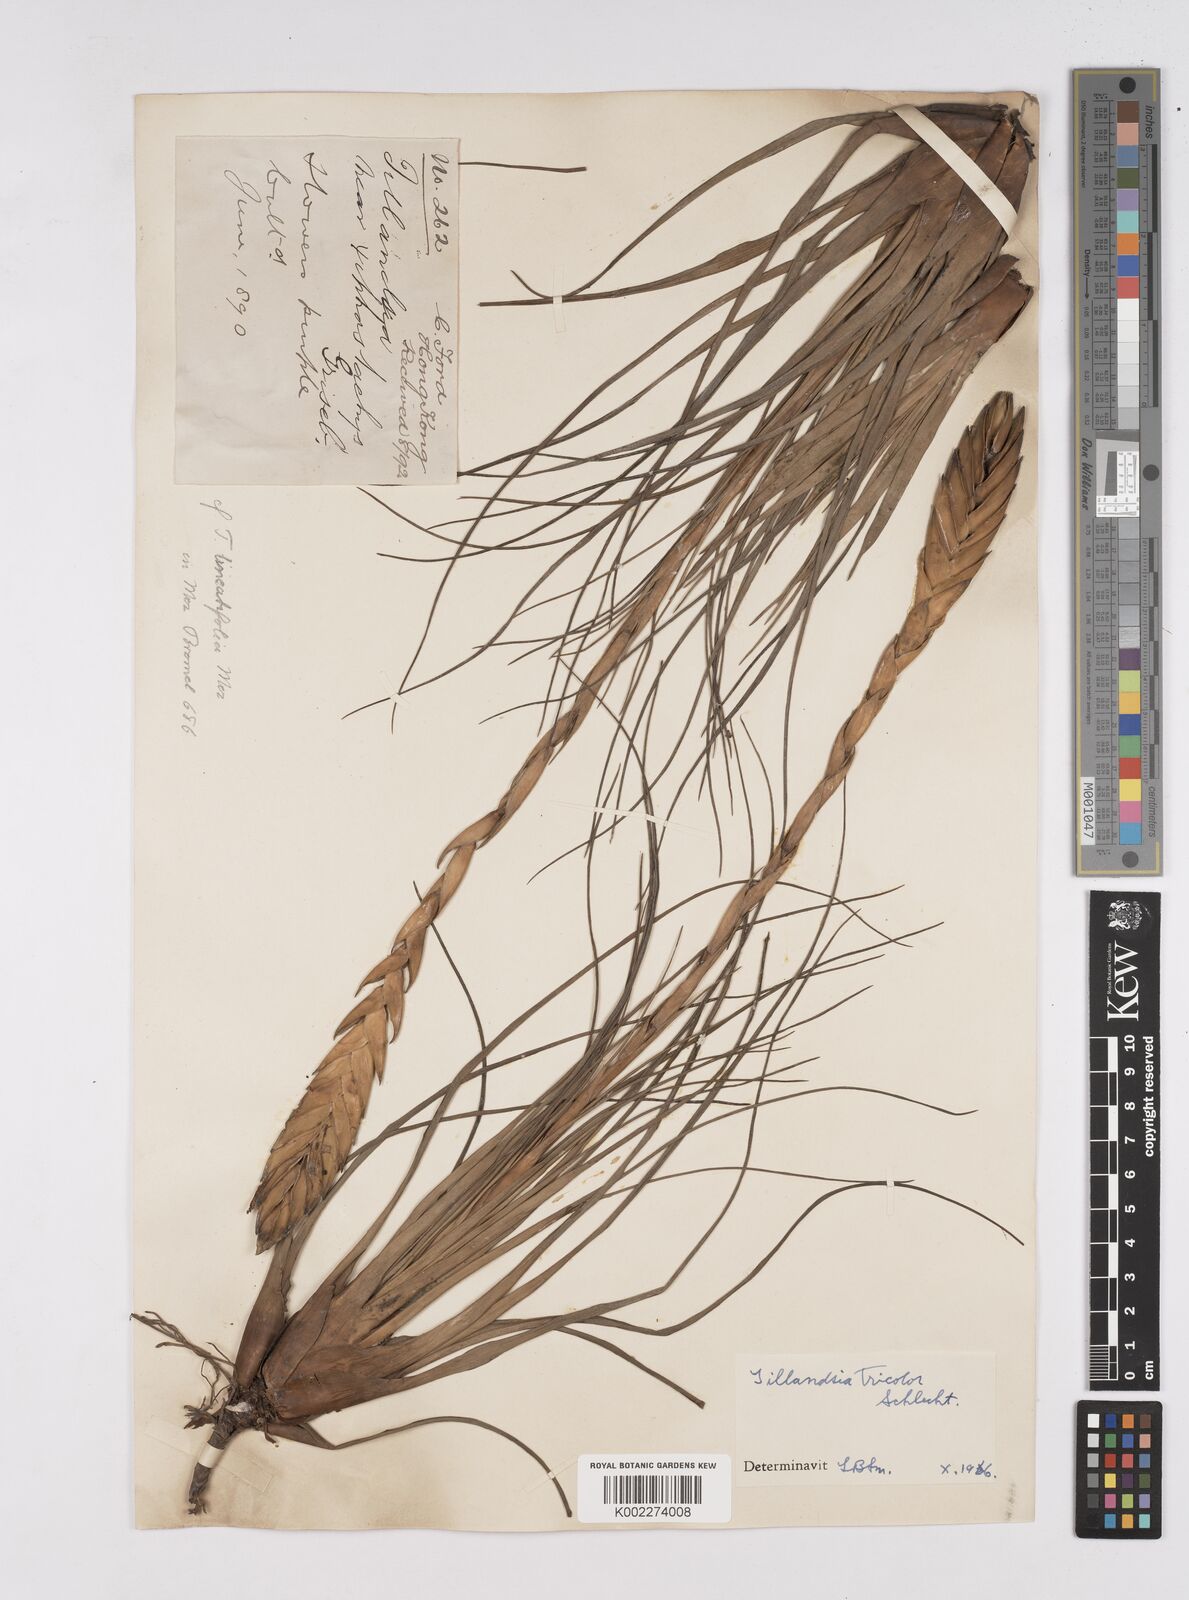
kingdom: Plantae
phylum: Tracheophyta
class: Liliopsida
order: Poales
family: Bromeliaceae
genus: Tillandsia
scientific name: Tillandsia tricolor
